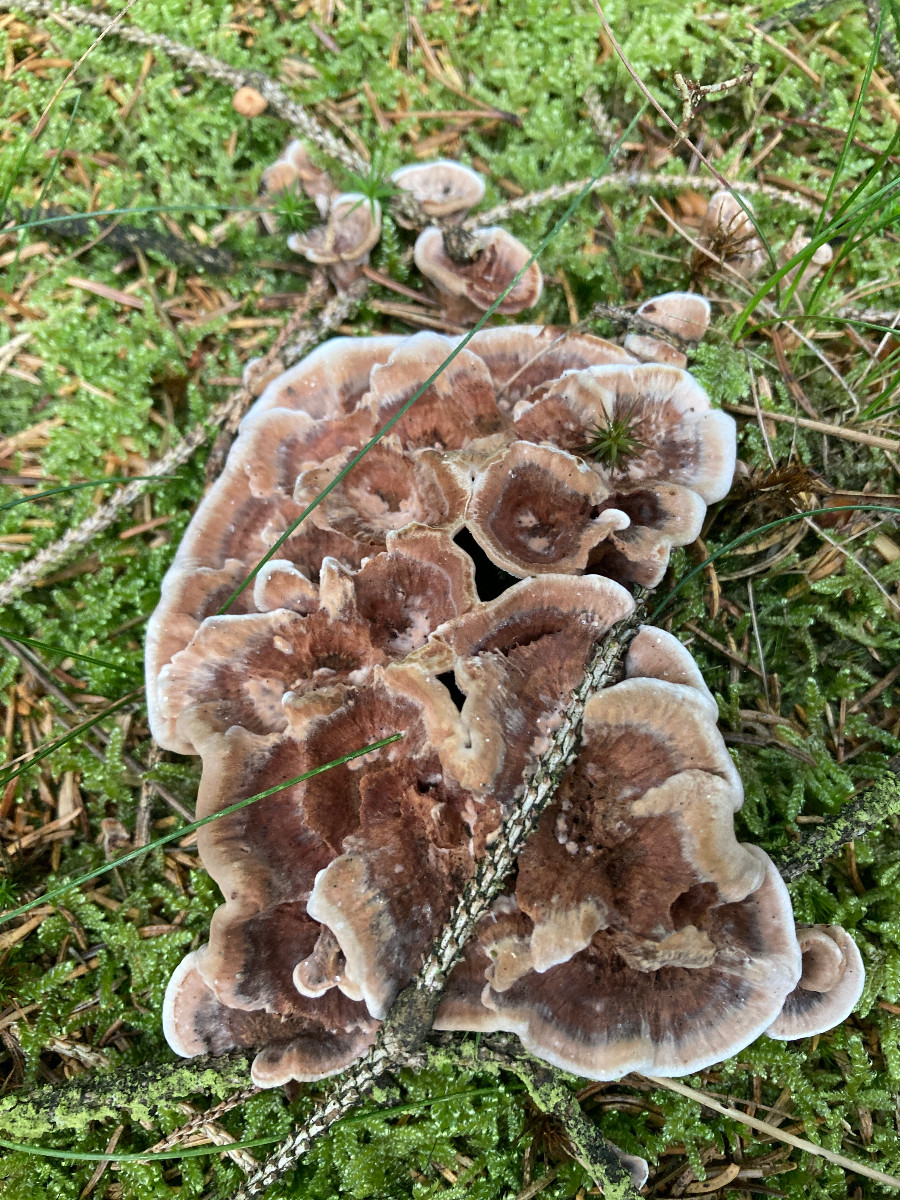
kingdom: Fungi
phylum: Basidiomycota
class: Agaricomycetes
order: Thelephorales
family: Bankeraceae
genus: Hydnellum
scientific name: Hydnellum concrescens
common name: Zoned tooth
